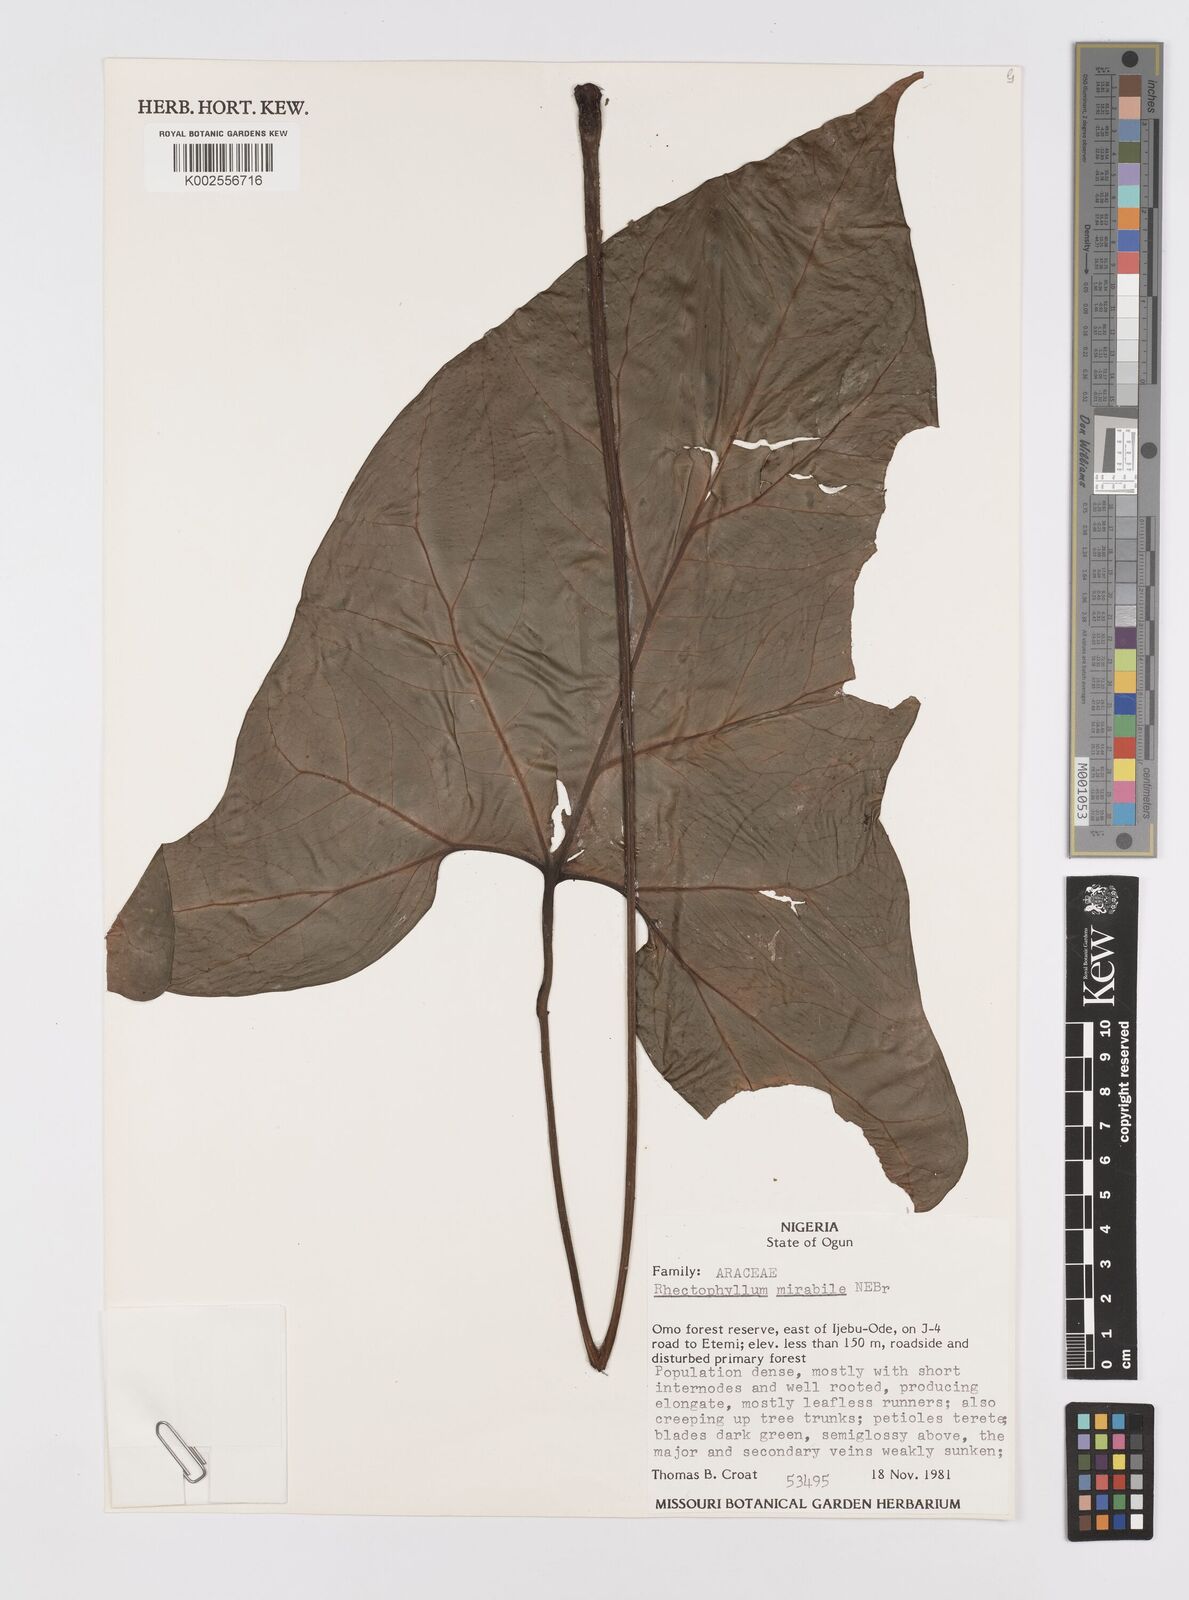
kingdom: Plantae
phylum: Tracheophyta
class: Liliopsida
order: Alismatales
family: Araceae
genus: Cercestis
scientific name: Cercestis mirabilis
